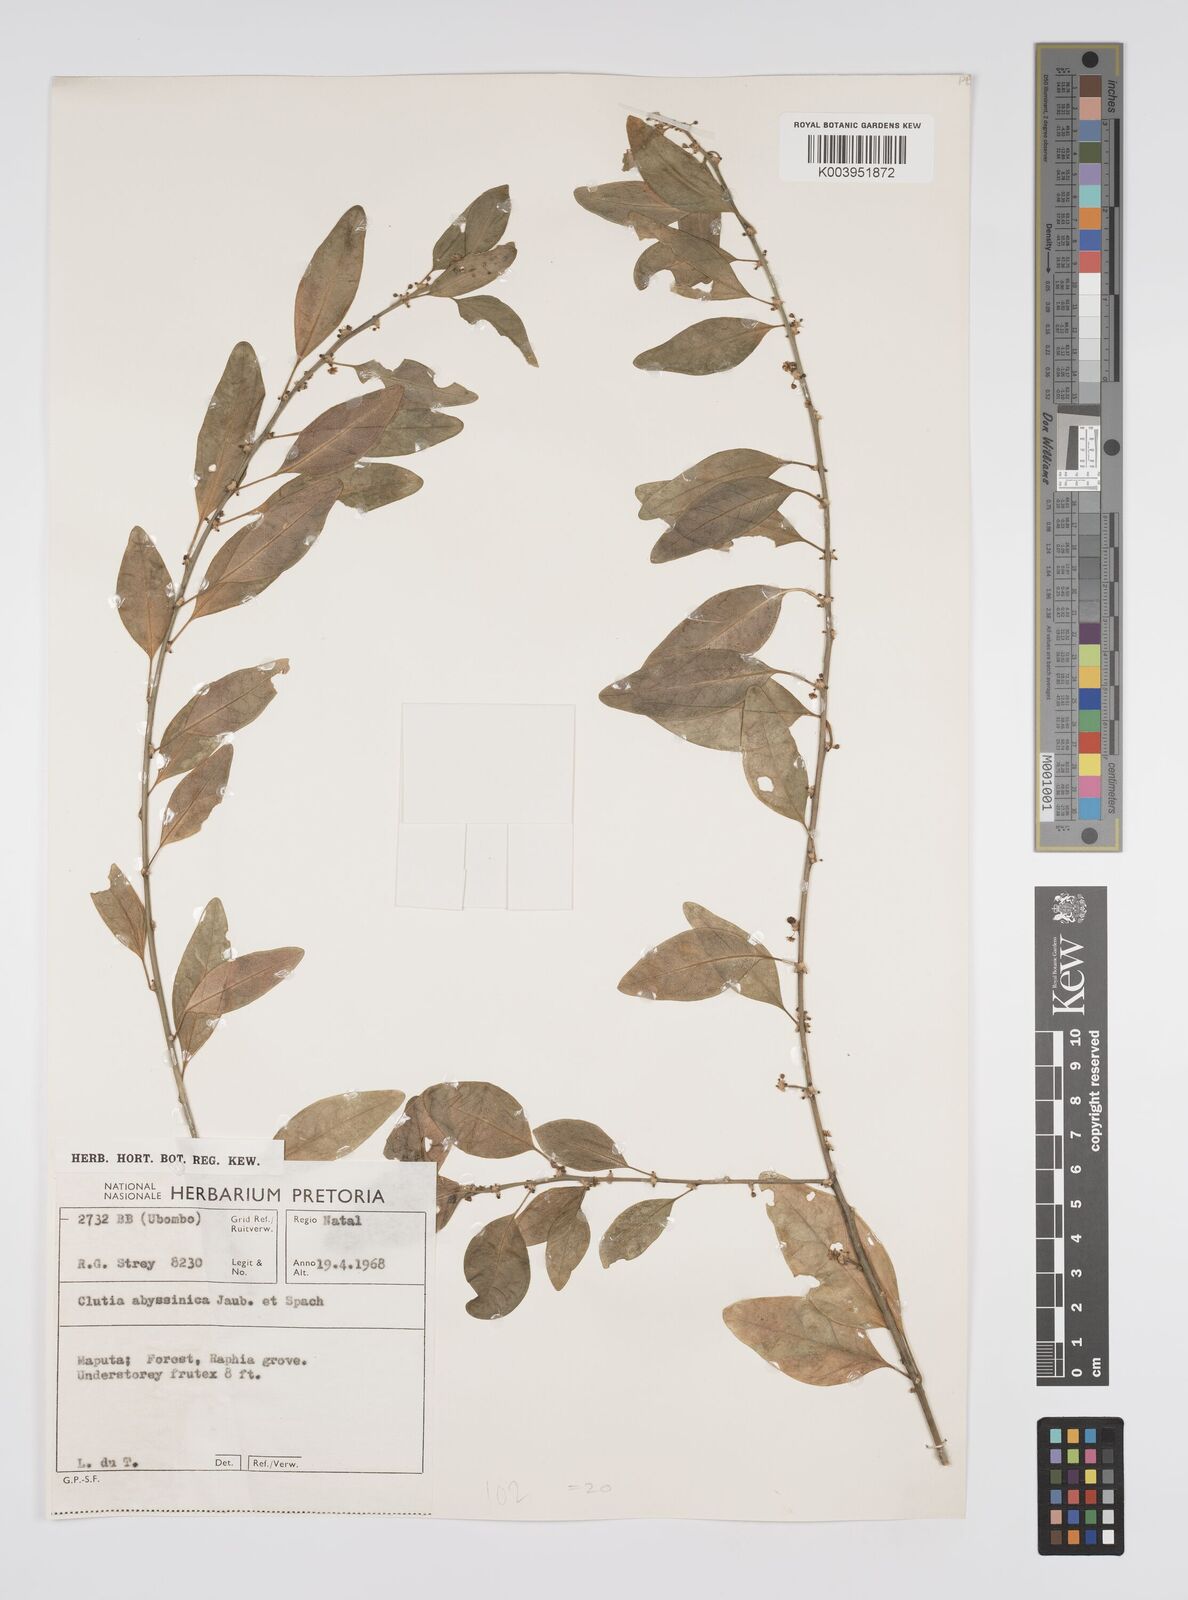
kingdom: Plantae
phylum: Tracheophyta
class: Magnoliopsida
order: Malpighiales
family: Peraceae
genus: Clutia
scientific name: Clutia
